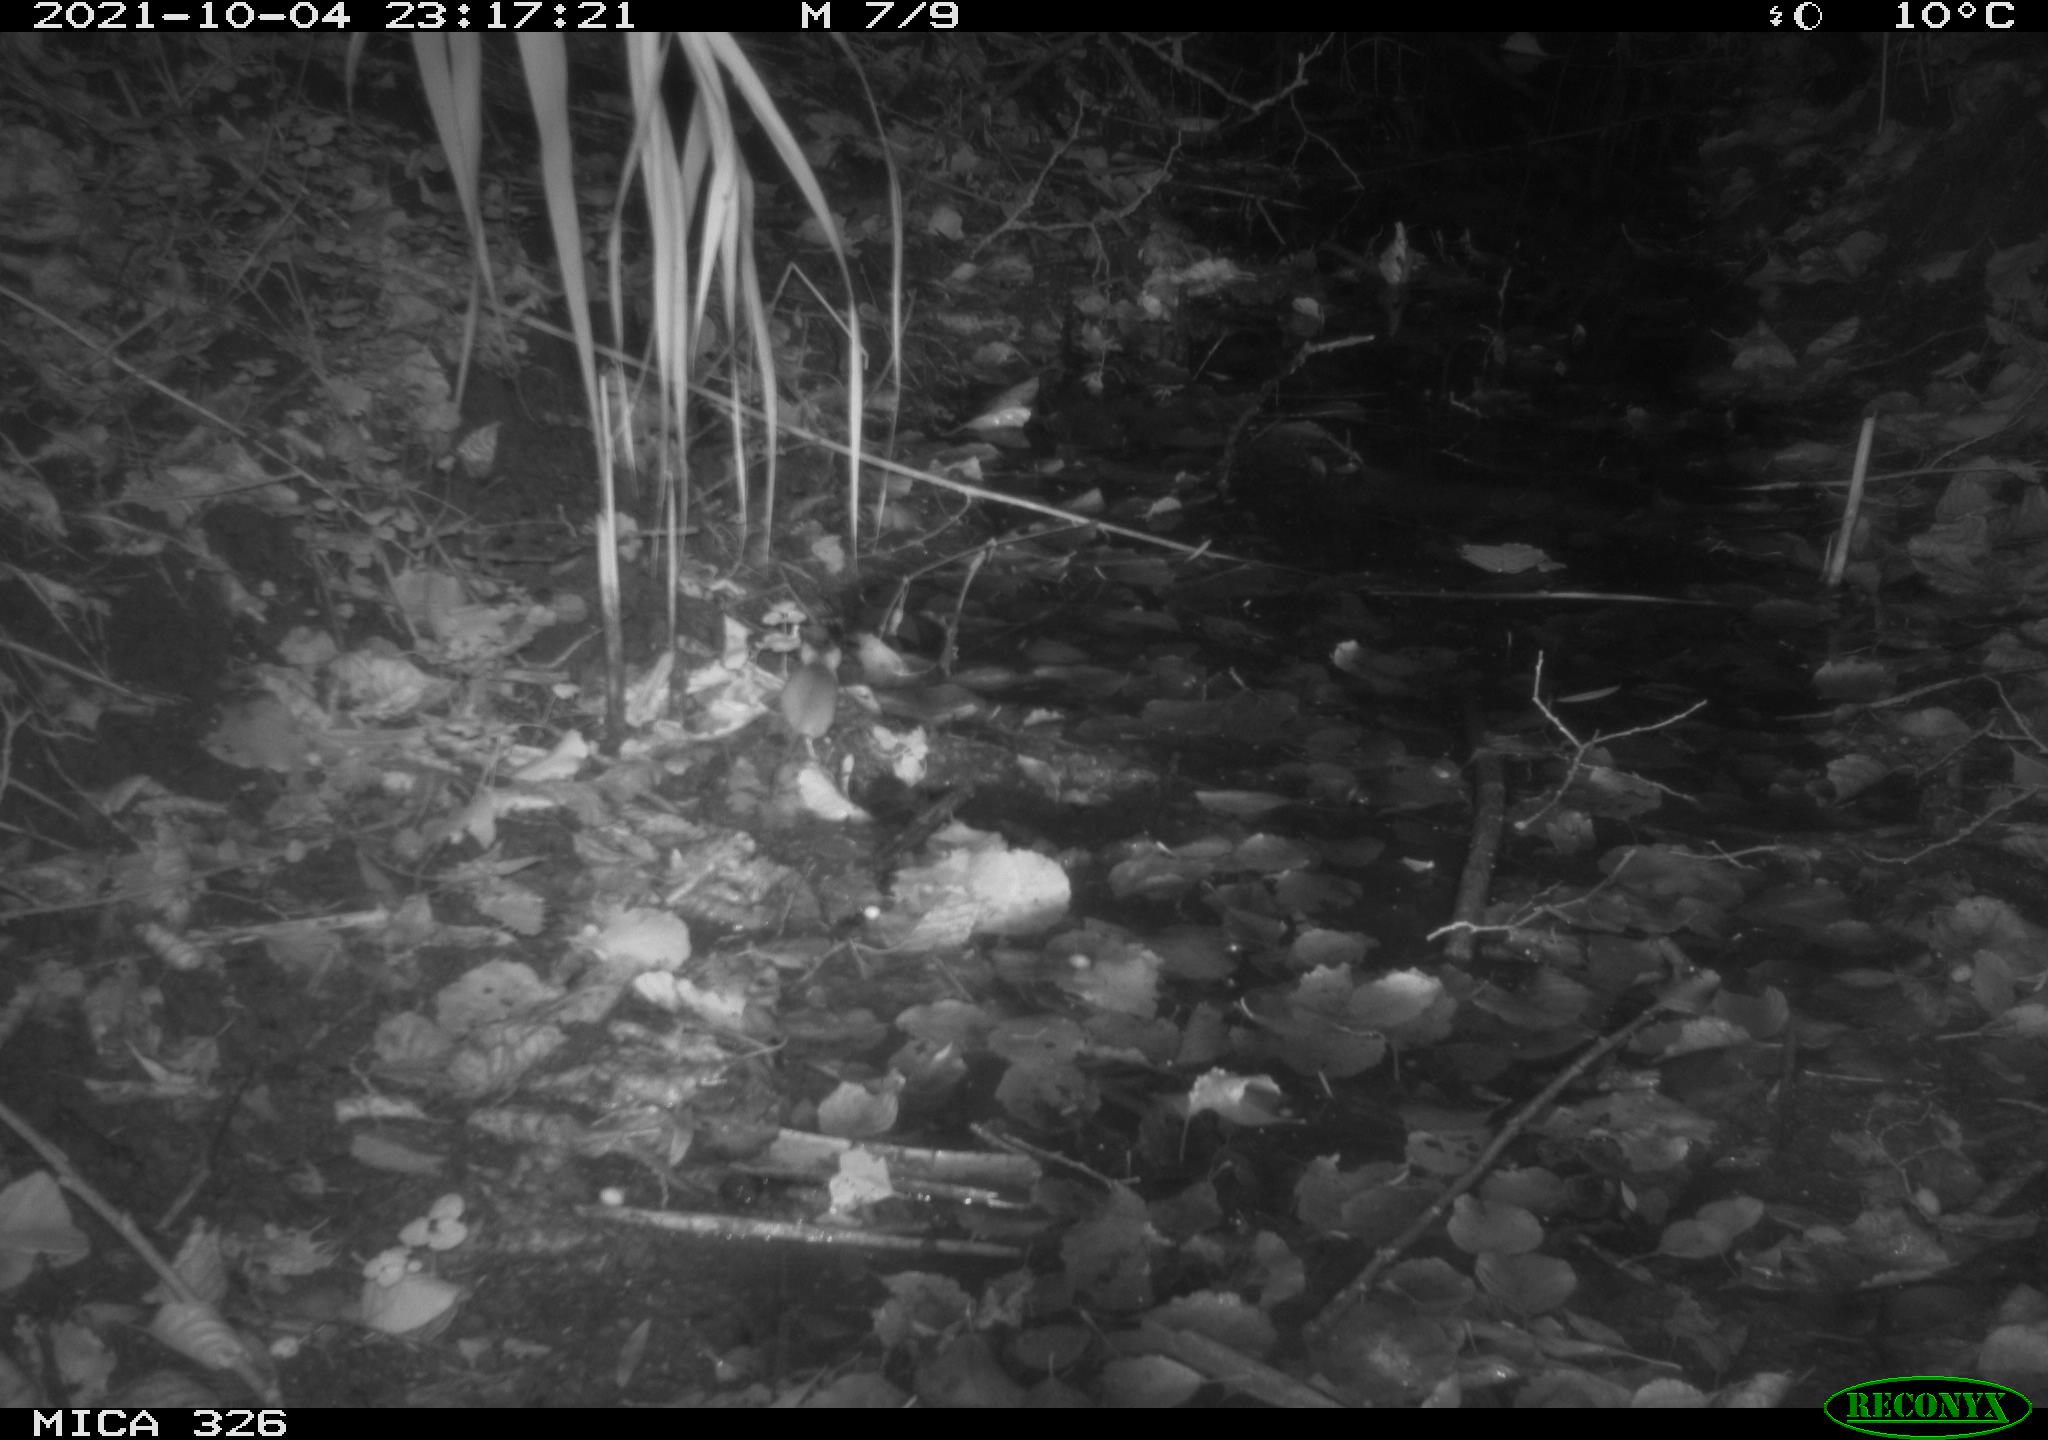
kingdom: Animalia
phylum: Chordata
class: Mammalia
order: Rodentia
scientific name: Rodentia
